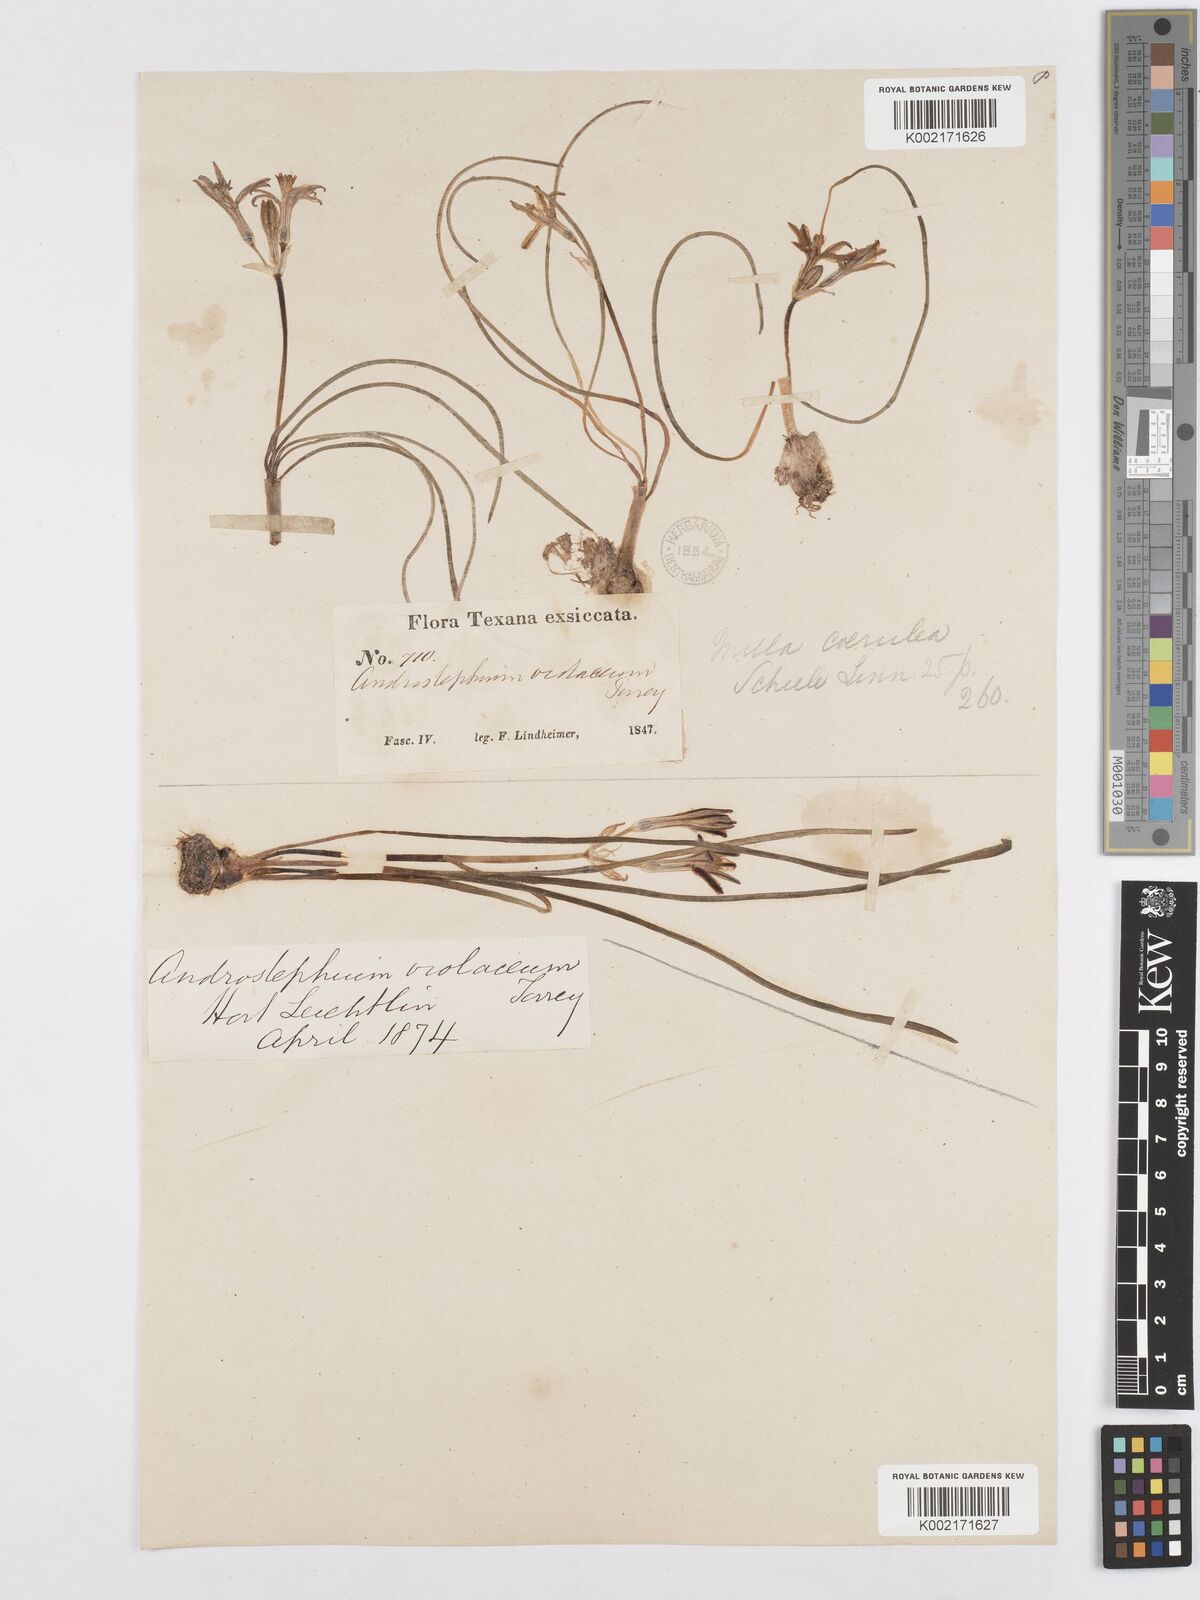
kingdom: Plantae
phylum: Tracheophyta
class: Liliopsida
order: Asparagales
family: Asparagaceae
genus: Androstephium
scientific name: Androstephium coeruleum
